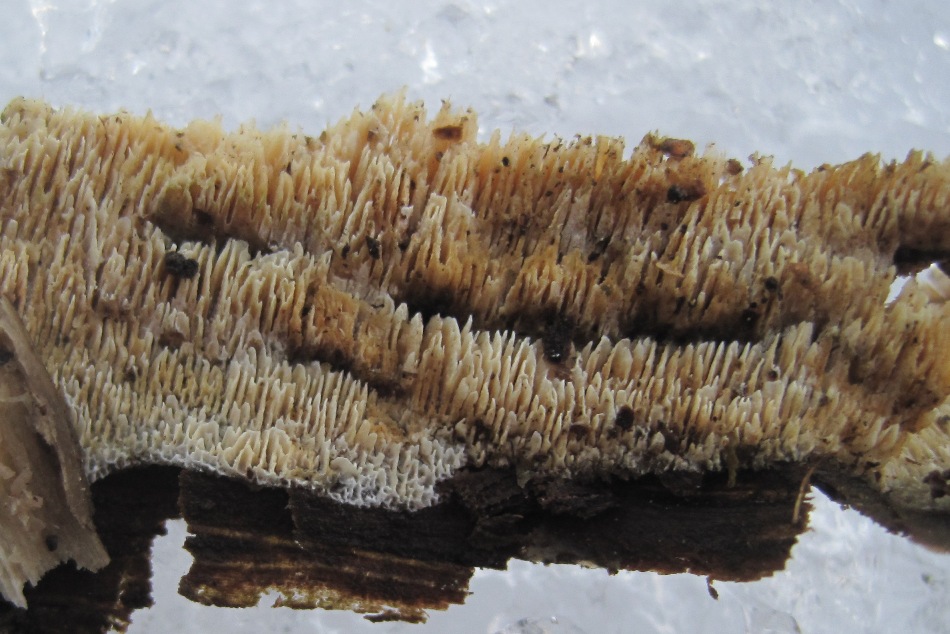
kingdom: Fungi
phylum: Basidiomycota
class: Agaricomycetes
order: Hymenochaetales
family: Schizoporaceae
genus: Xylodon
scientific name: Xylodon subtropicus
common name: labyrint-tandsvamp
